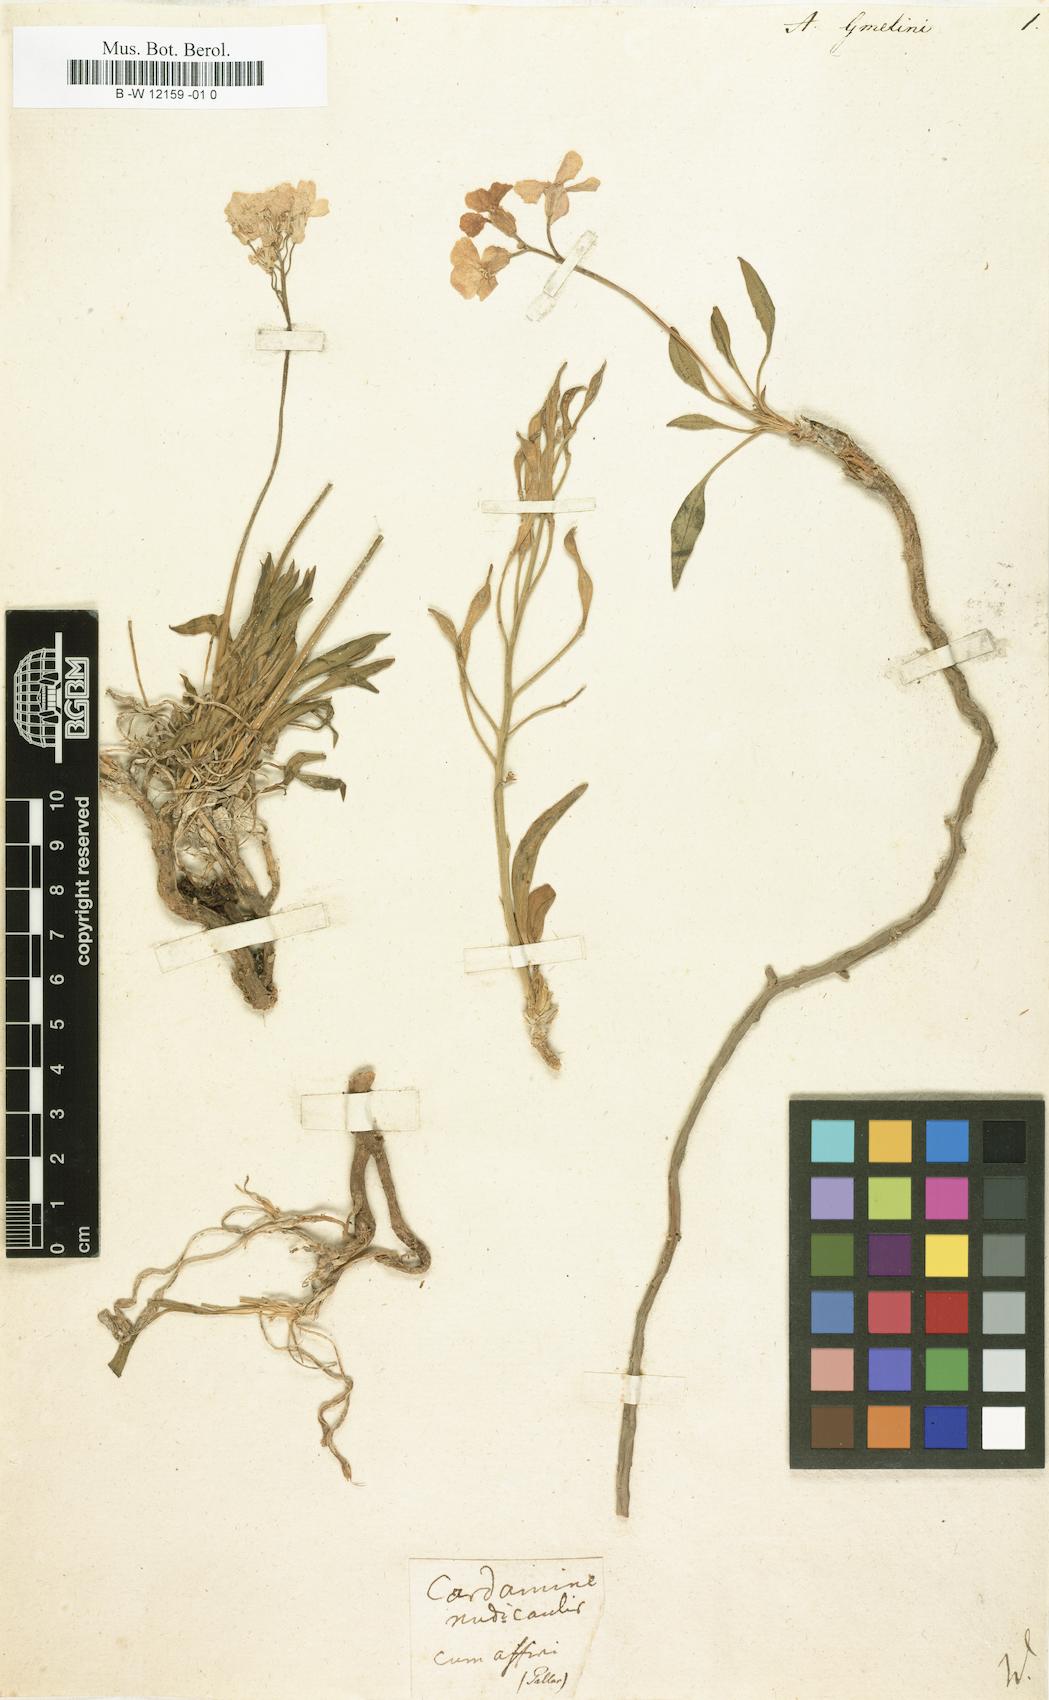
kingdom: Plantae
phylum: Tracheophyta
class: Magnoliopsida
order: Brassicales
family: Brassicaceae
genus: Parrya
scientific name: Parrya nudicaulis
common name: Naked-stemmed false wallflower
